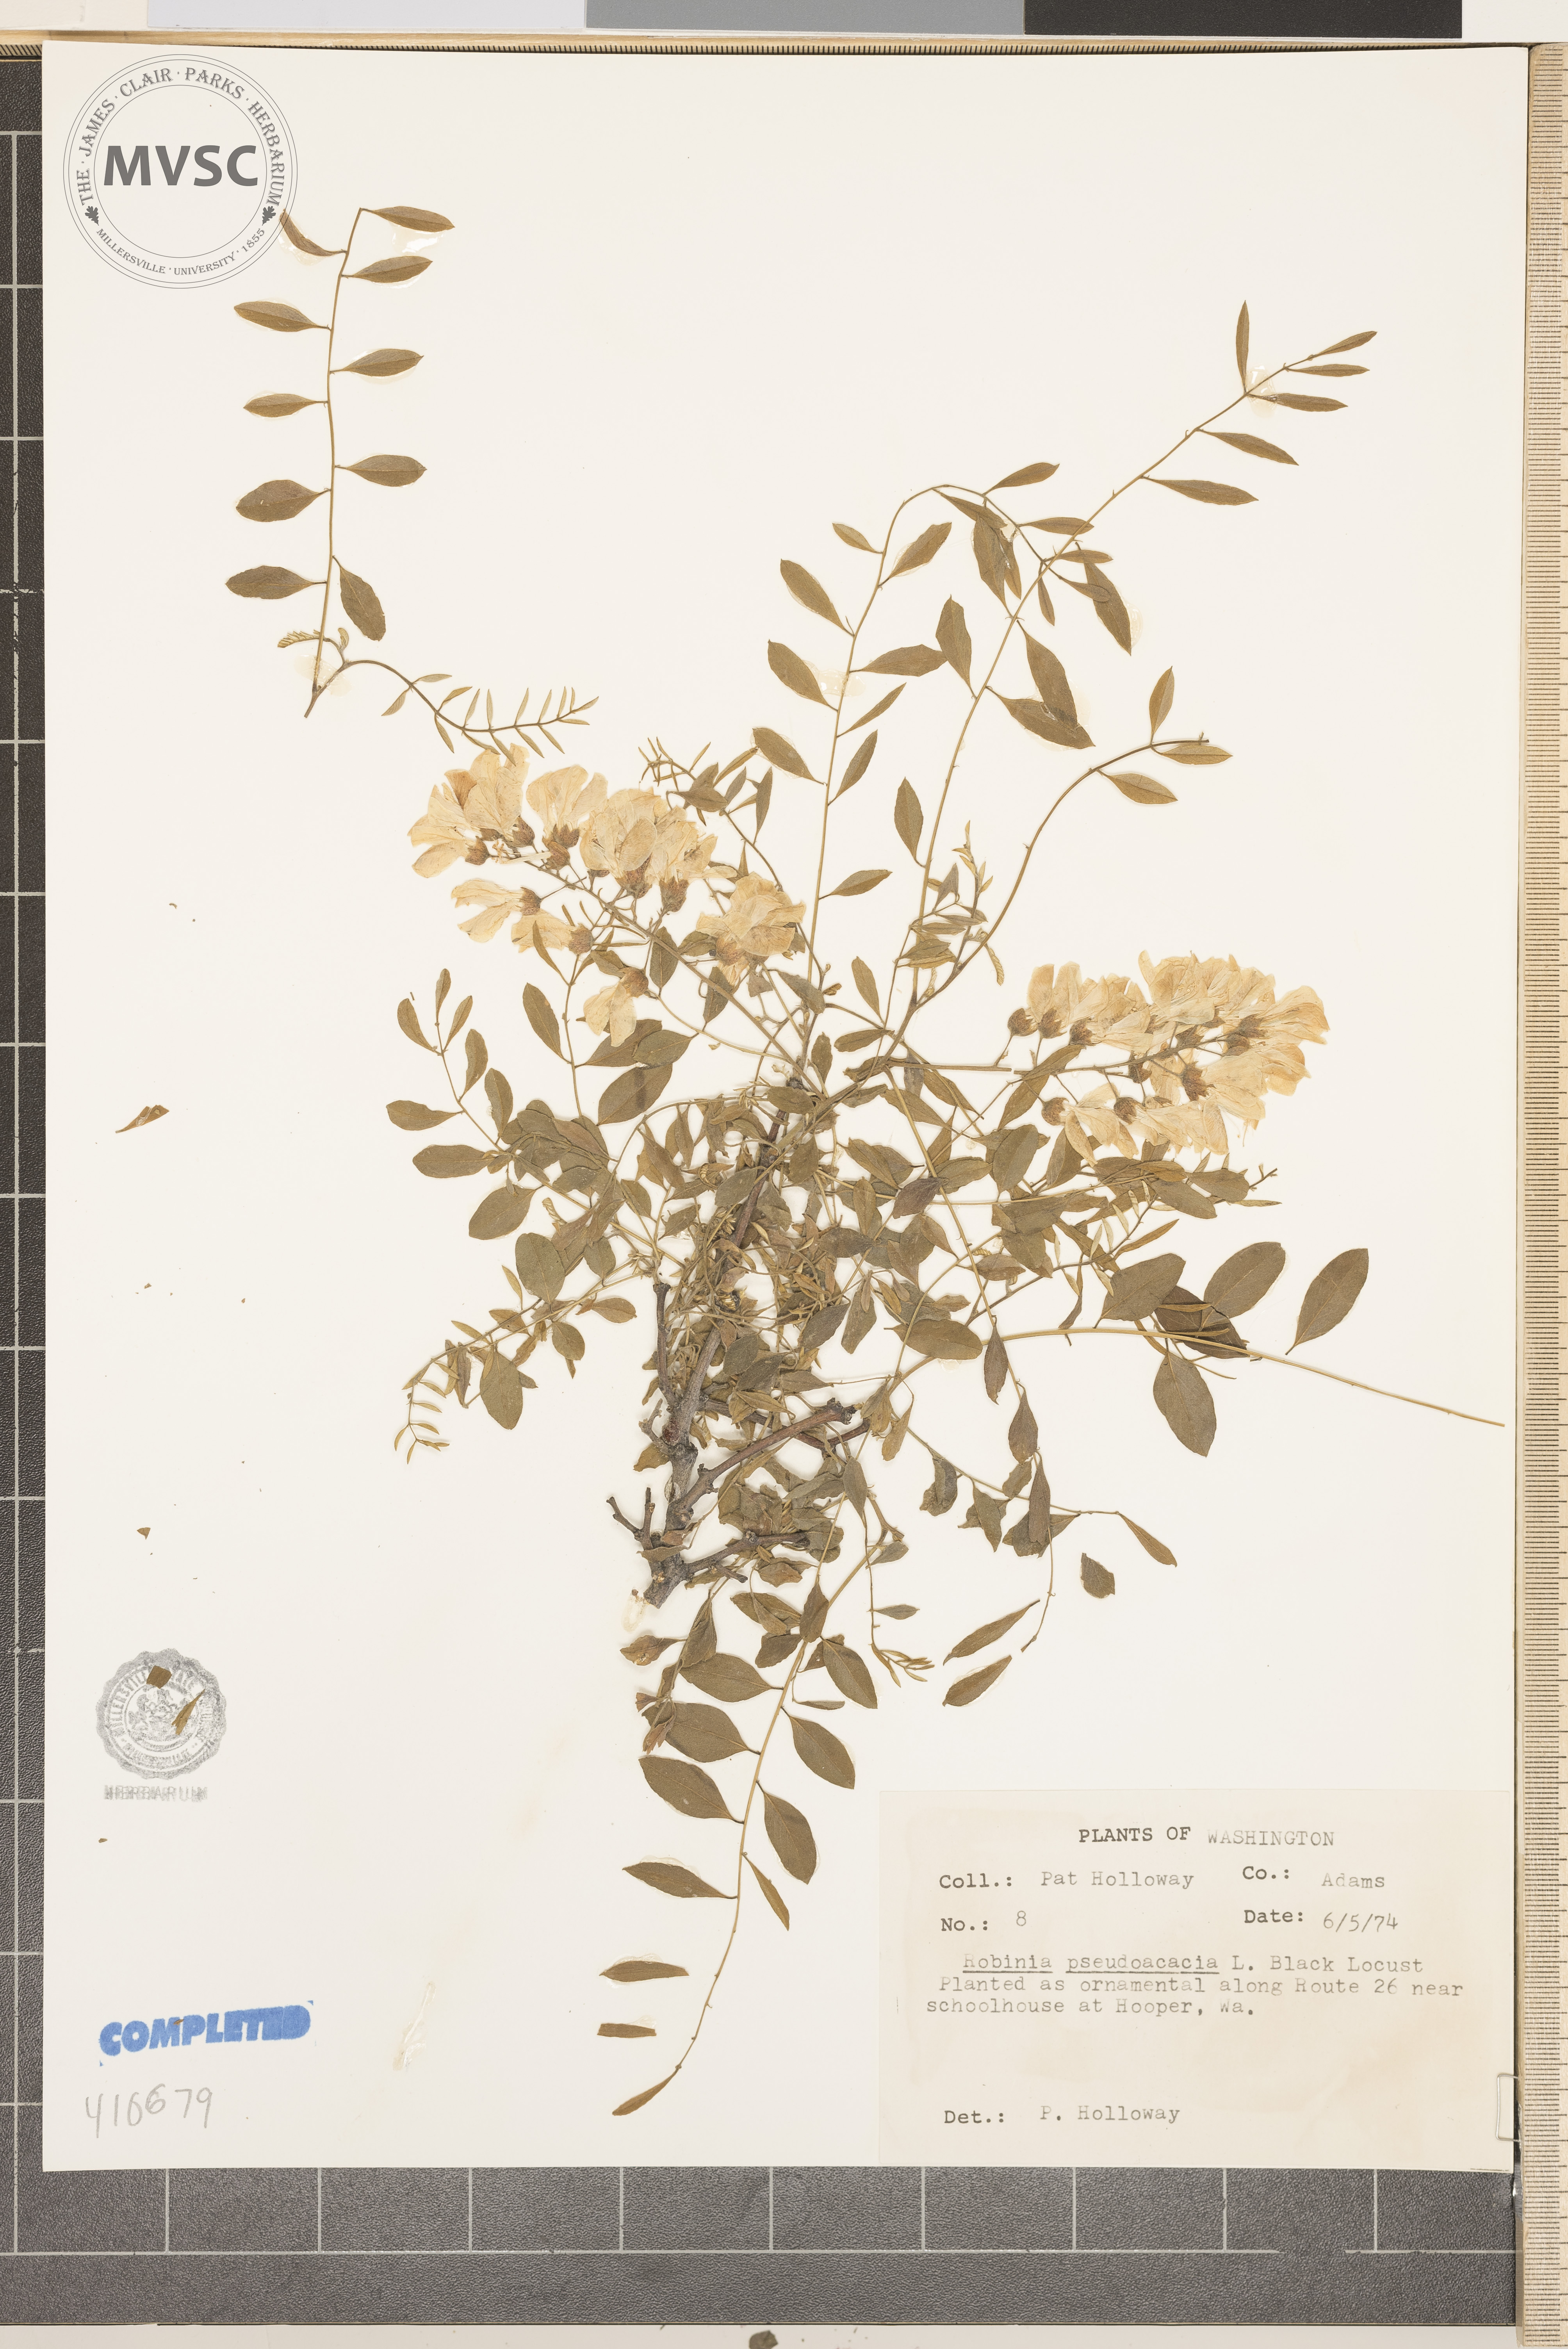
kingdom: Plantae
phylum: Tracheophyta
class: Magnoliopsida
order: Fabales
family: Fabaceae
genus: Robinia
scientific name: Robinia pseudoacacia
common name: black locust
